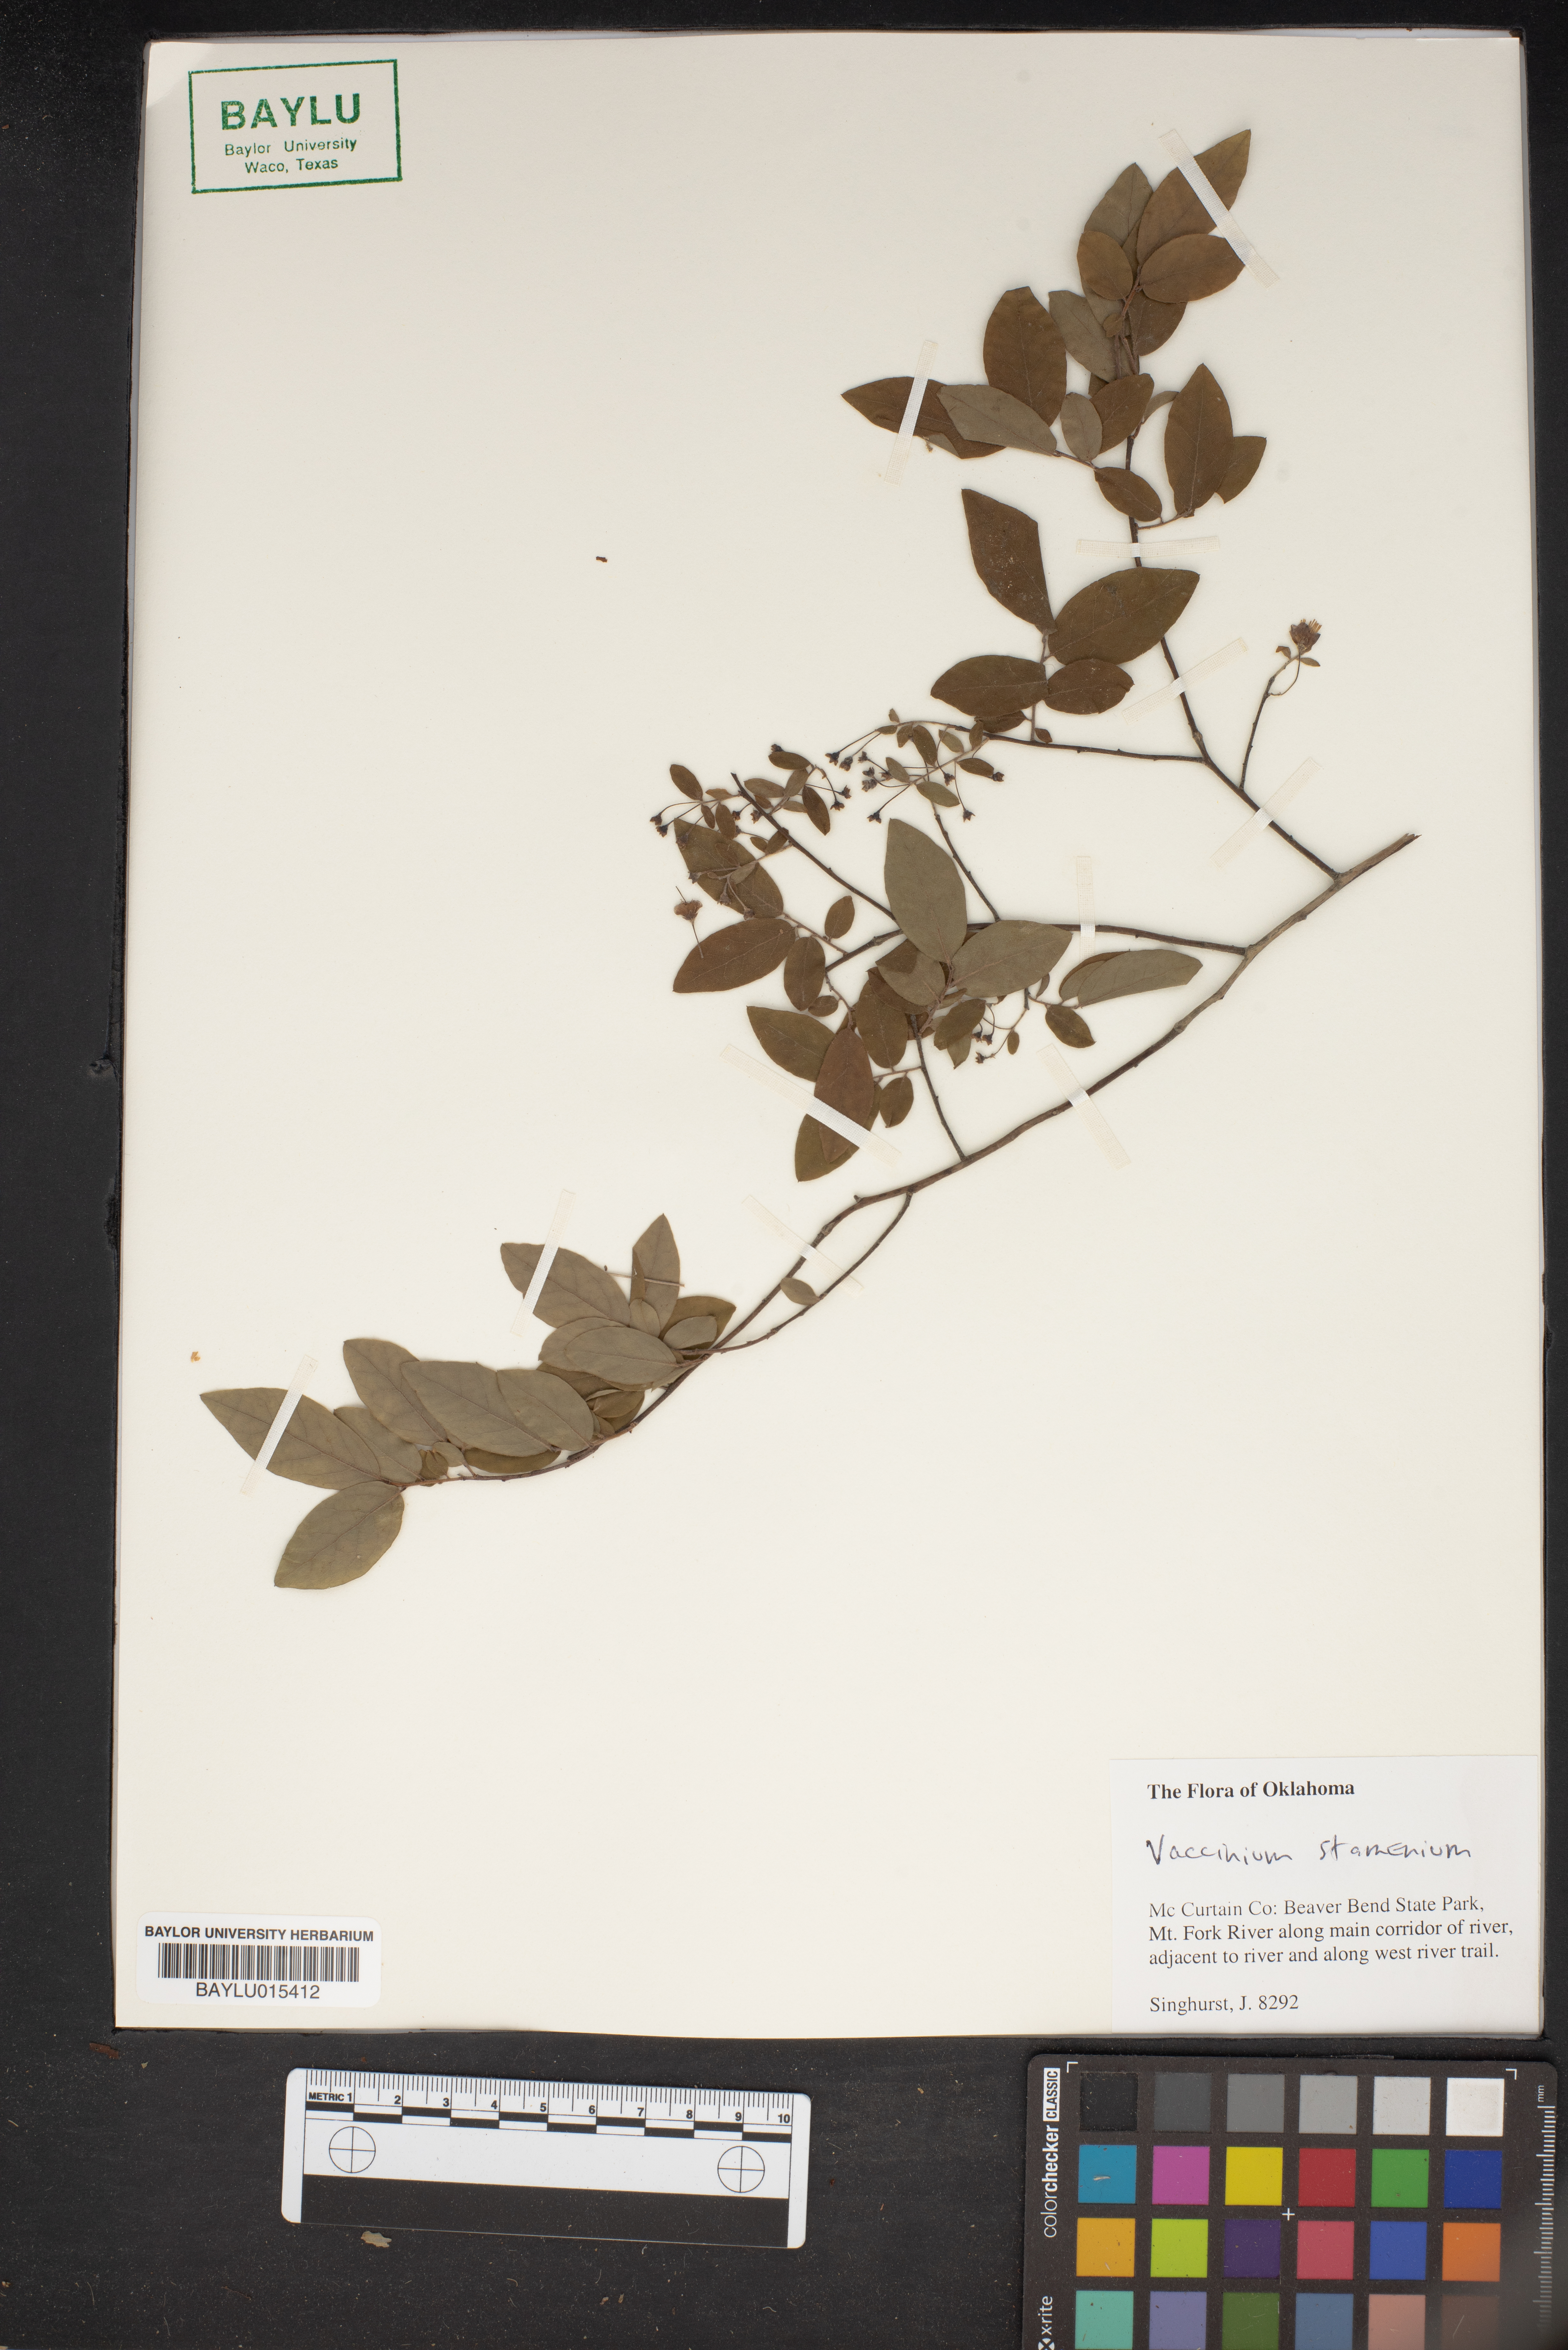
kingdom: Plantae
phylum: Tracheophyta
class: Magnoliopsida
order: Ericales
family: Ericaceae
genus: Vaccinium
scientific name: Vaccinium stamineum
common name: Deerberry
